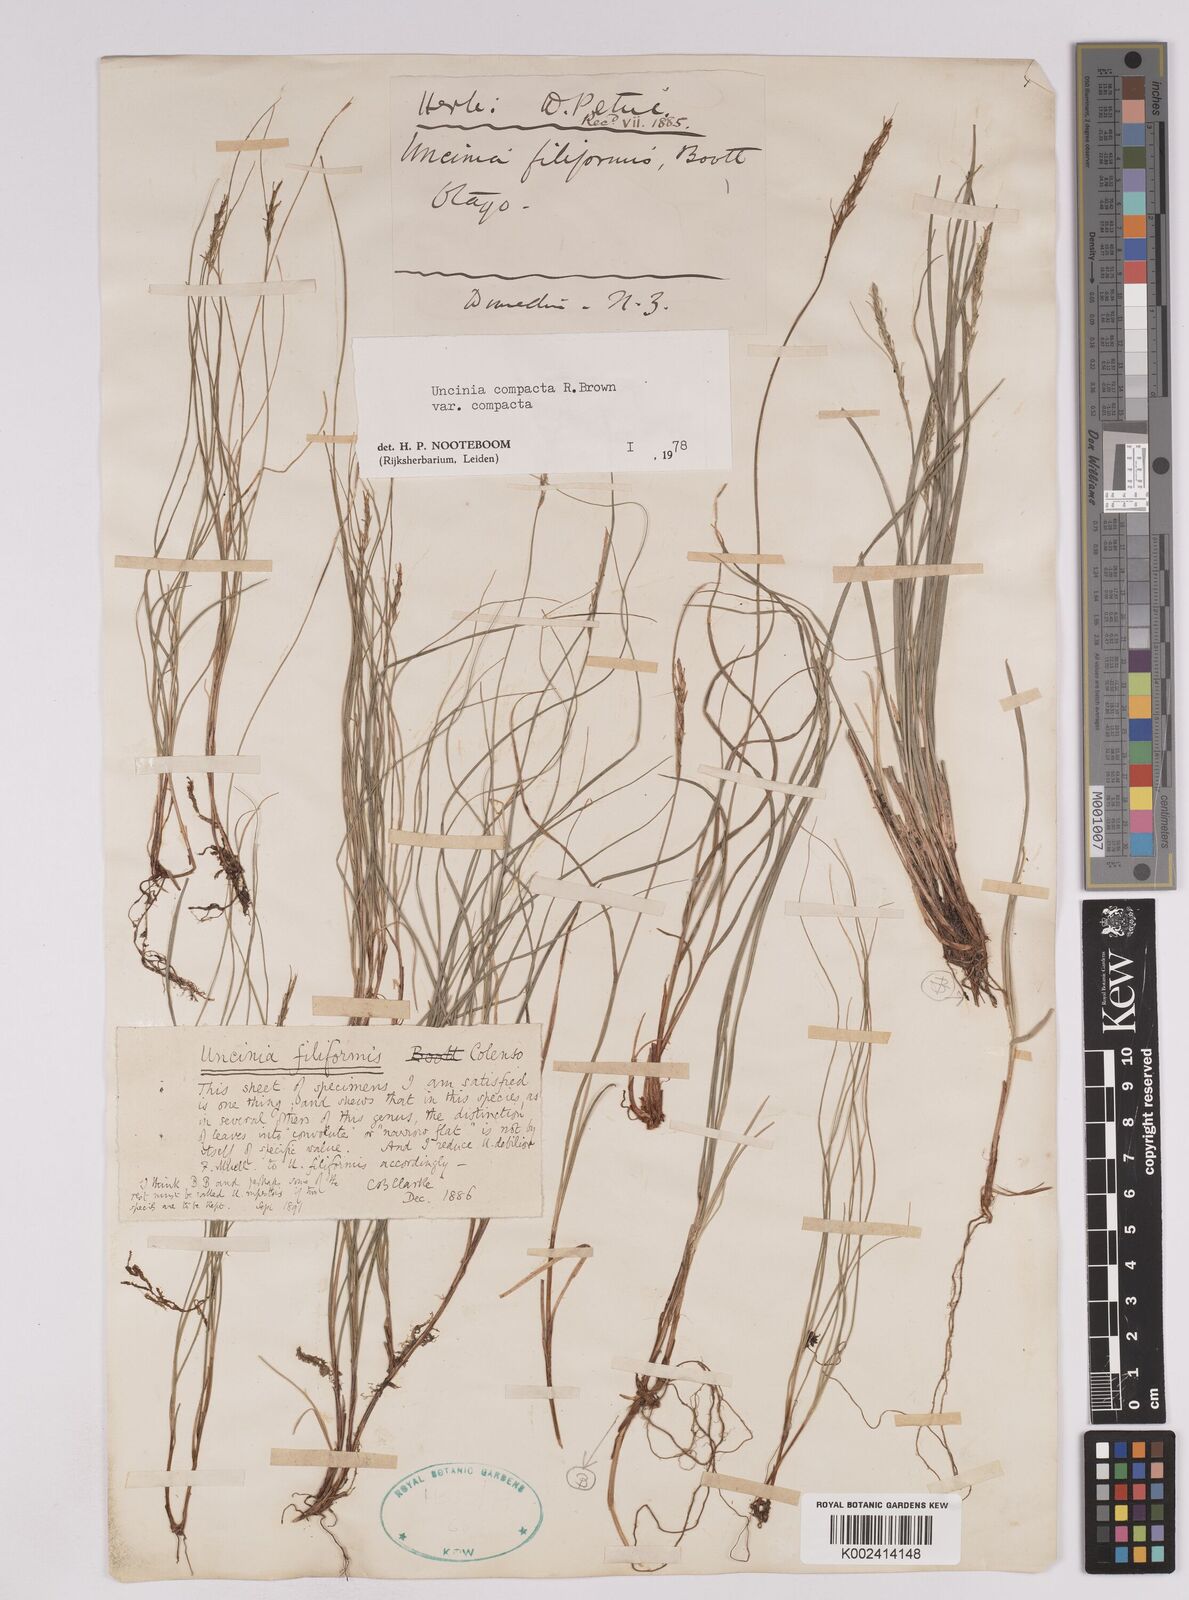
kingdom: Plantae
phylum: Tracheophyta
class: Liliopsida
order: Poales
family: Cyperaceae
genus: Carex
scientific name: Carex austrocompacta
